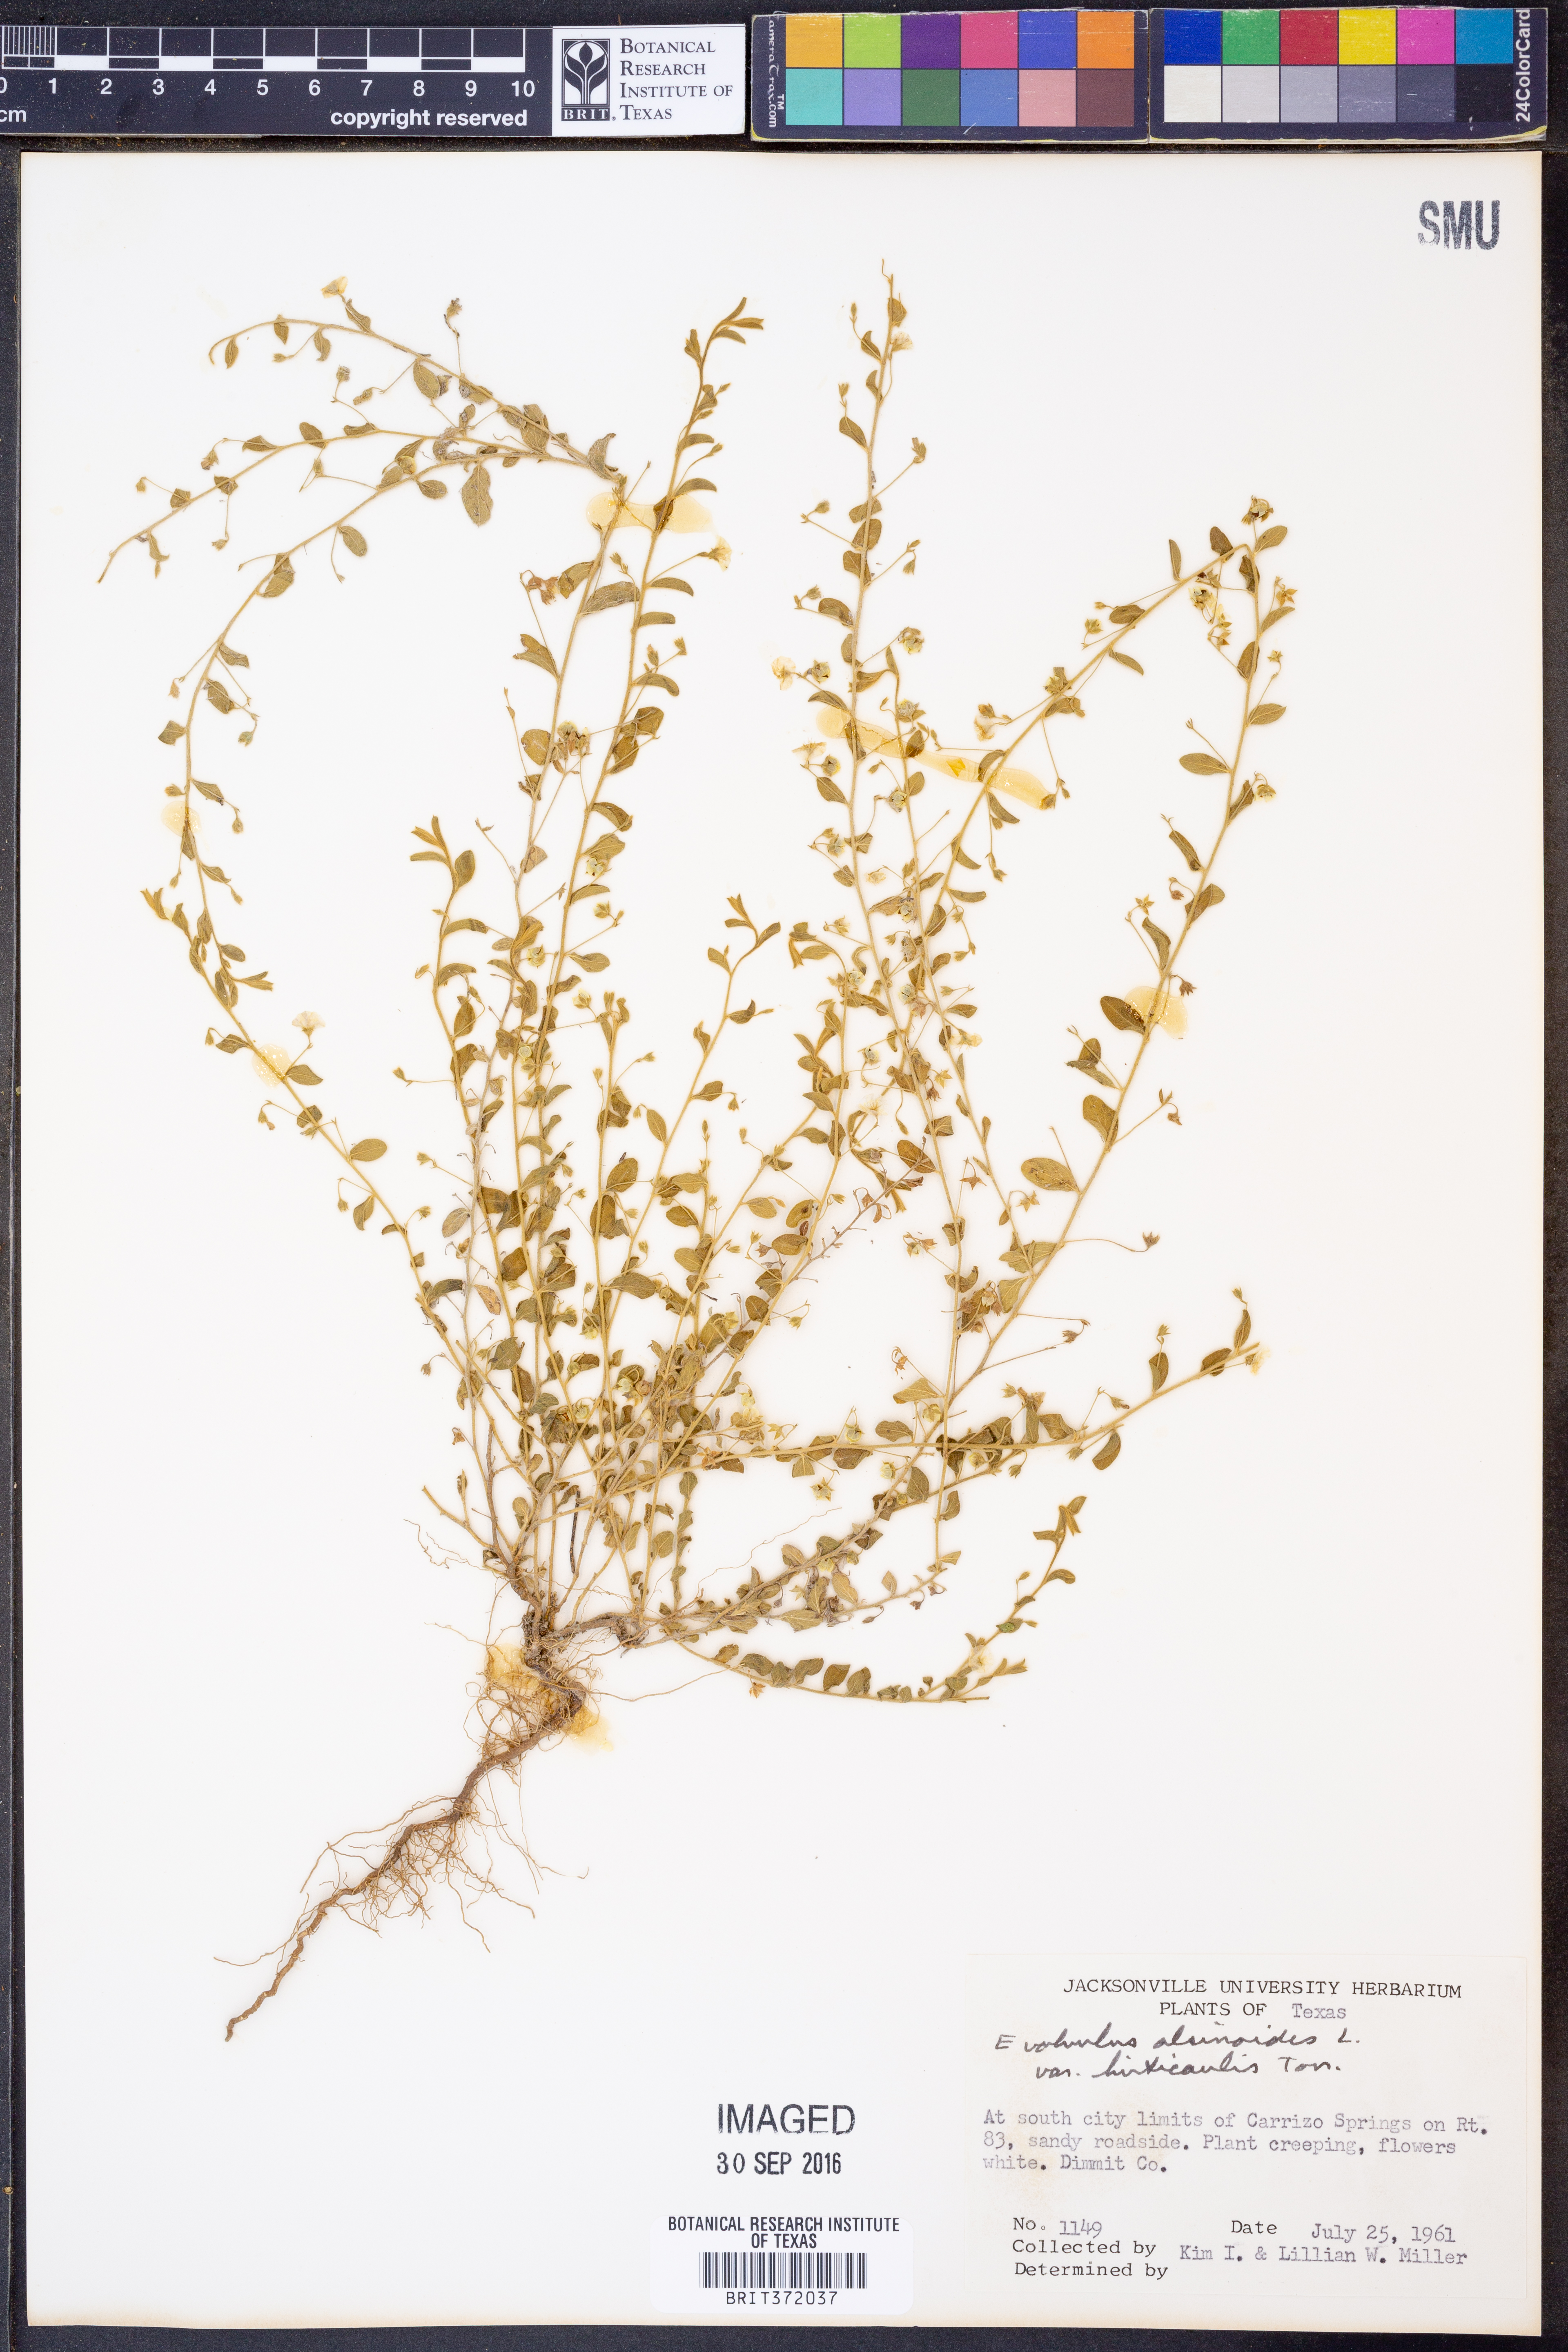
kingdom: Plantae
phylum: Tracheophyta
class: Magnoliopsida
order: Solanales
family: Convolvulaceae
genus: Evolvulus
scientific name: Evolvulus alsinoides
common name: Slender dwarf morning-glory
